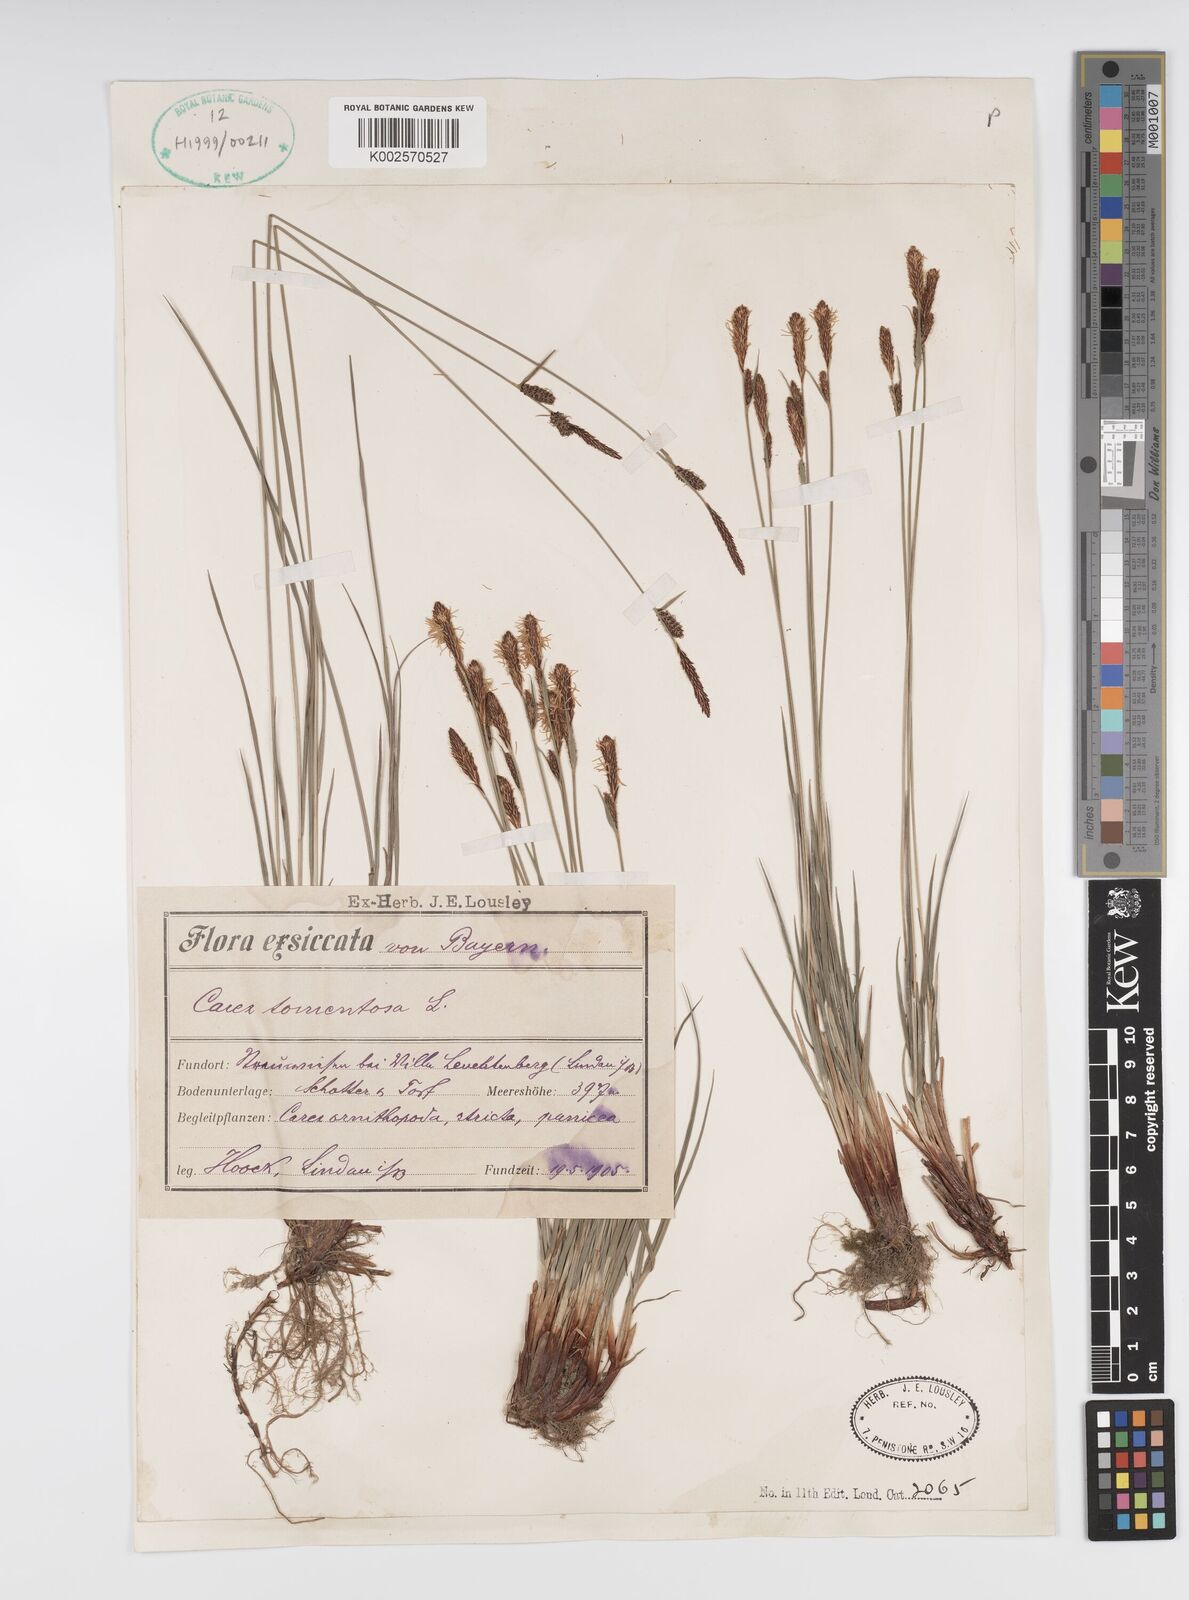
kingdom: Plantae
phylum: Tracheophyta
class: Liliopsida
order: Poales
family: Cyperaceae
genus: Carex
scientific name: Carex montana
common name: Soft-leaved sedge
